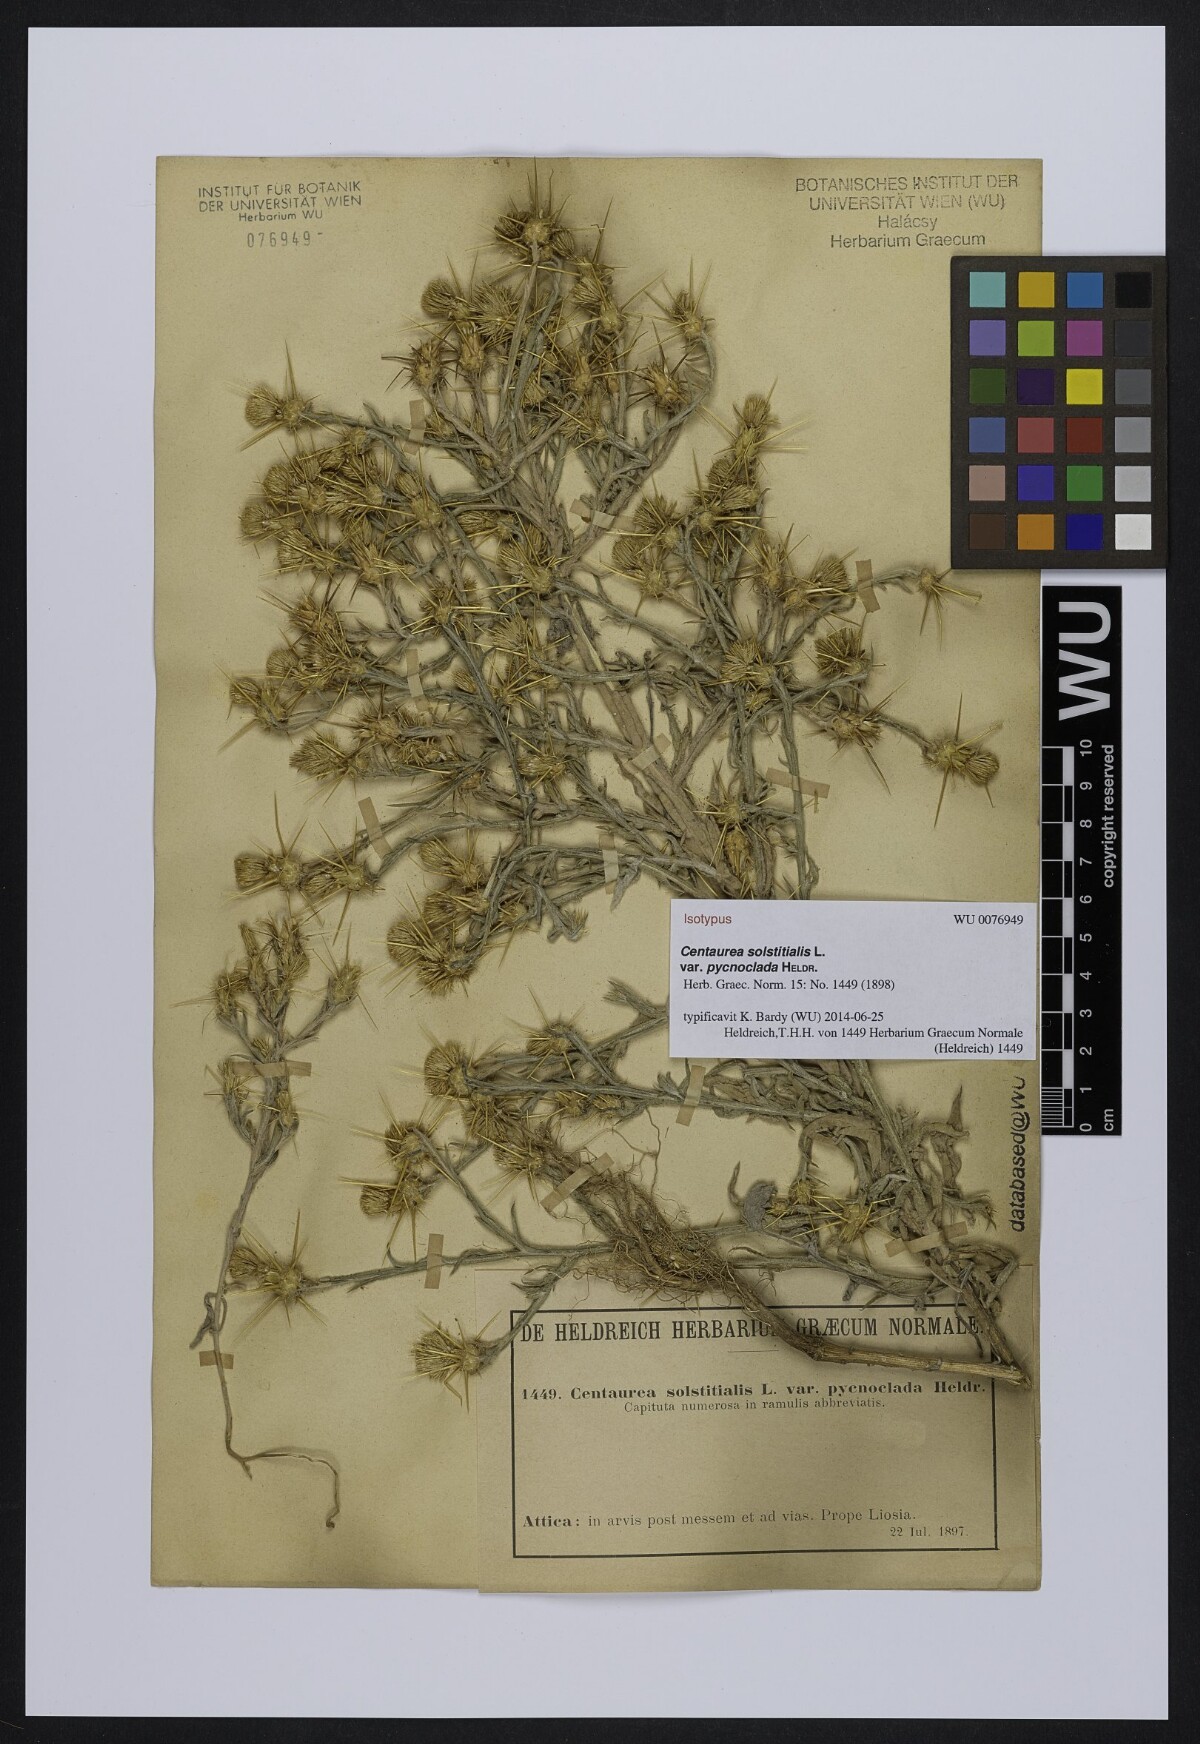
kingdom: Plantae
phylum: Tracheophyta
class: Magnoliopsida
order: Asterales
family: Asteraceae
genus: Centaurea
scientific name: Centaurea solstitialis
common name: Yellow star-thistle
